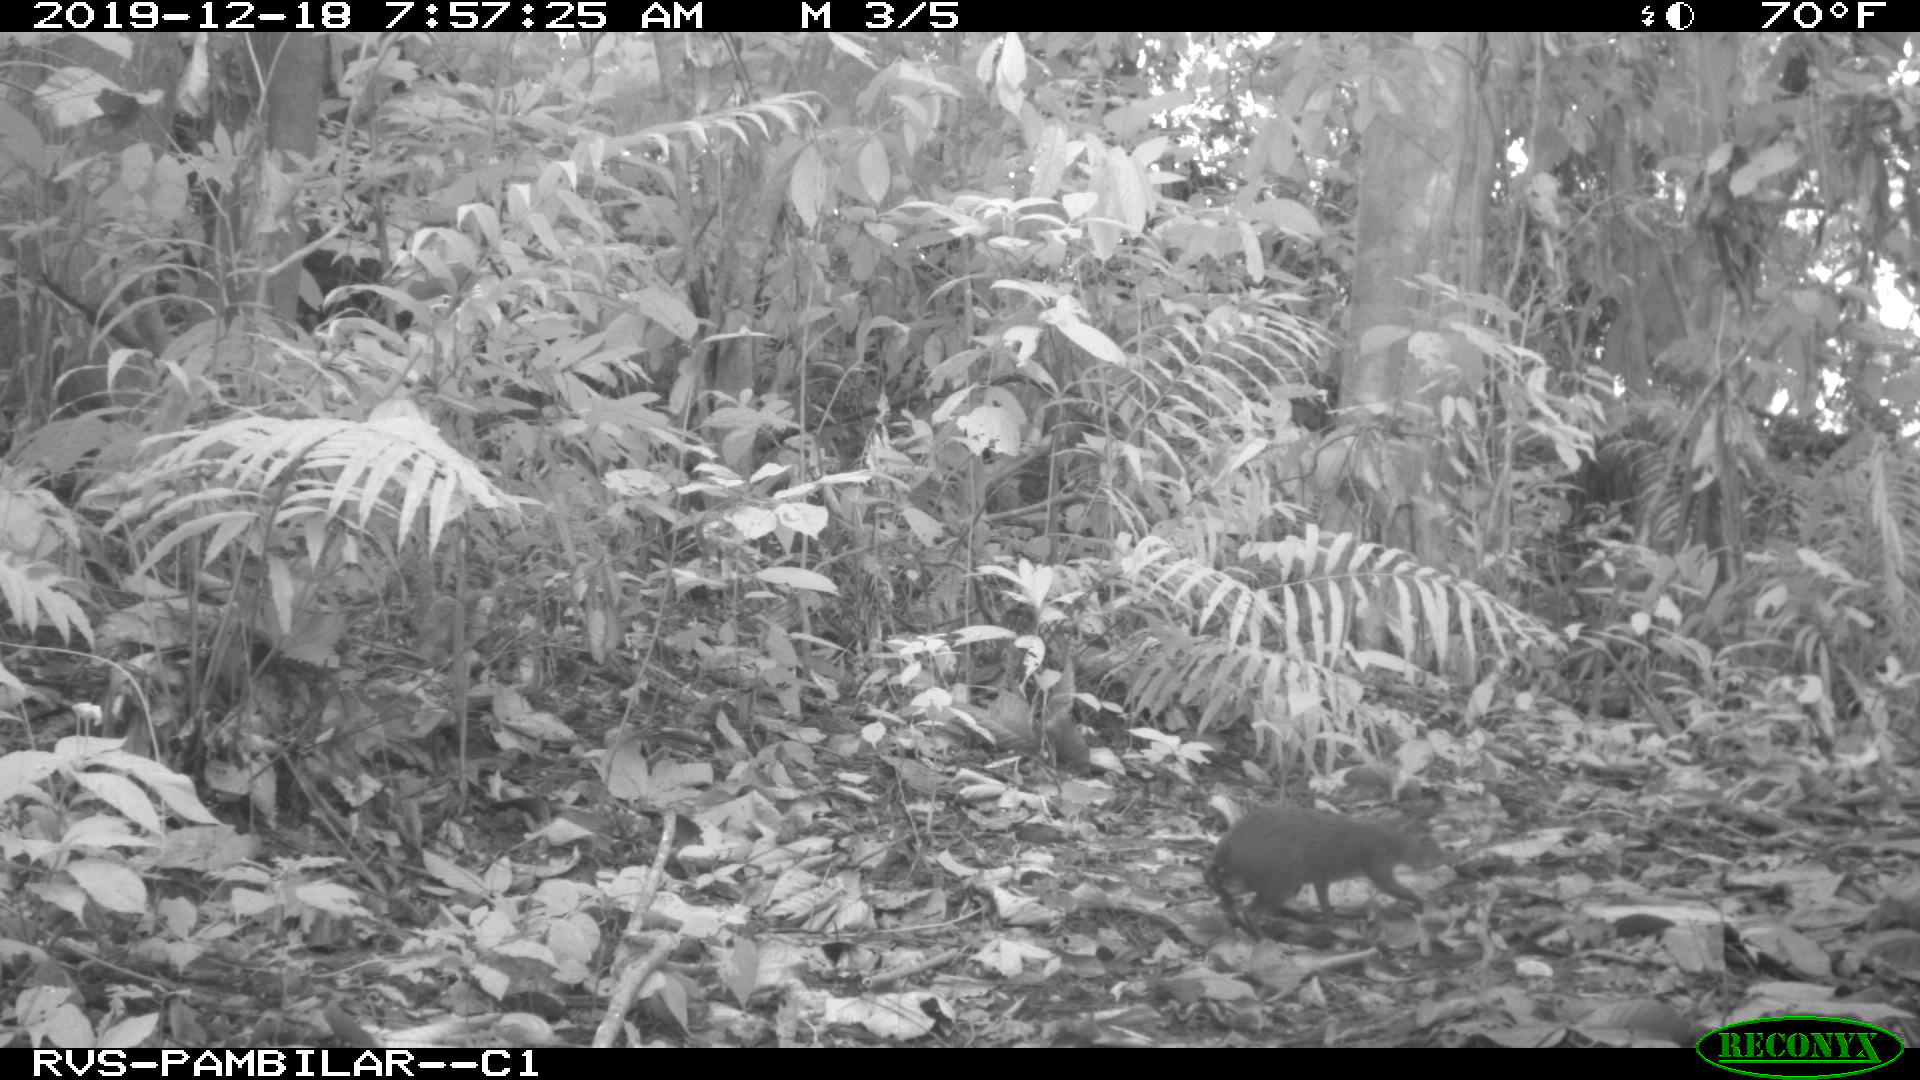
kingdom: Animalia
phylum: Chordata
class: Mammalia
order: Rodentia
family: Dasyproctidae
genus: Dasyprocta
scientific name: Dasyprocta punctata
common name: Central american agouti
